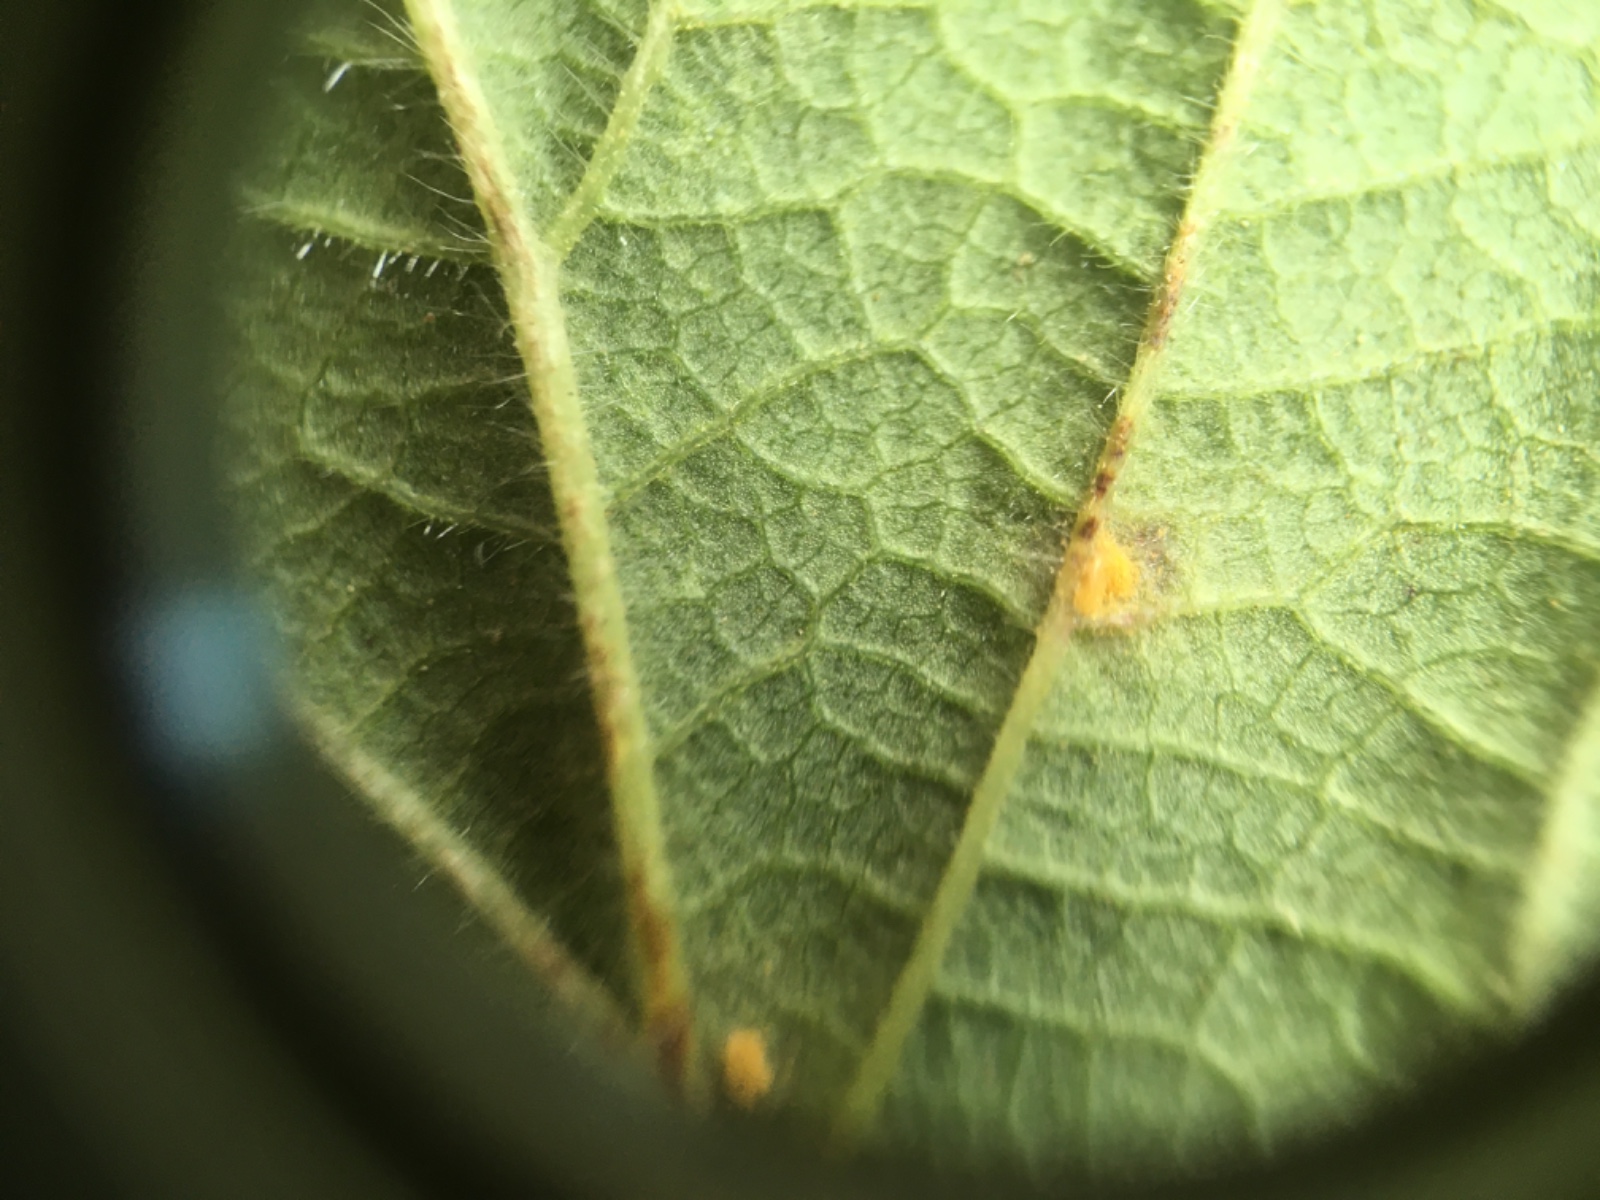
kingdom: Fungi
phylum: Basidiomycota
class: Pucciniomycetes
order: Pucciniales
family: Phragmidiaceae
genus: Phragmidium
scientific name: Phragmidium
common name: flercellerust
